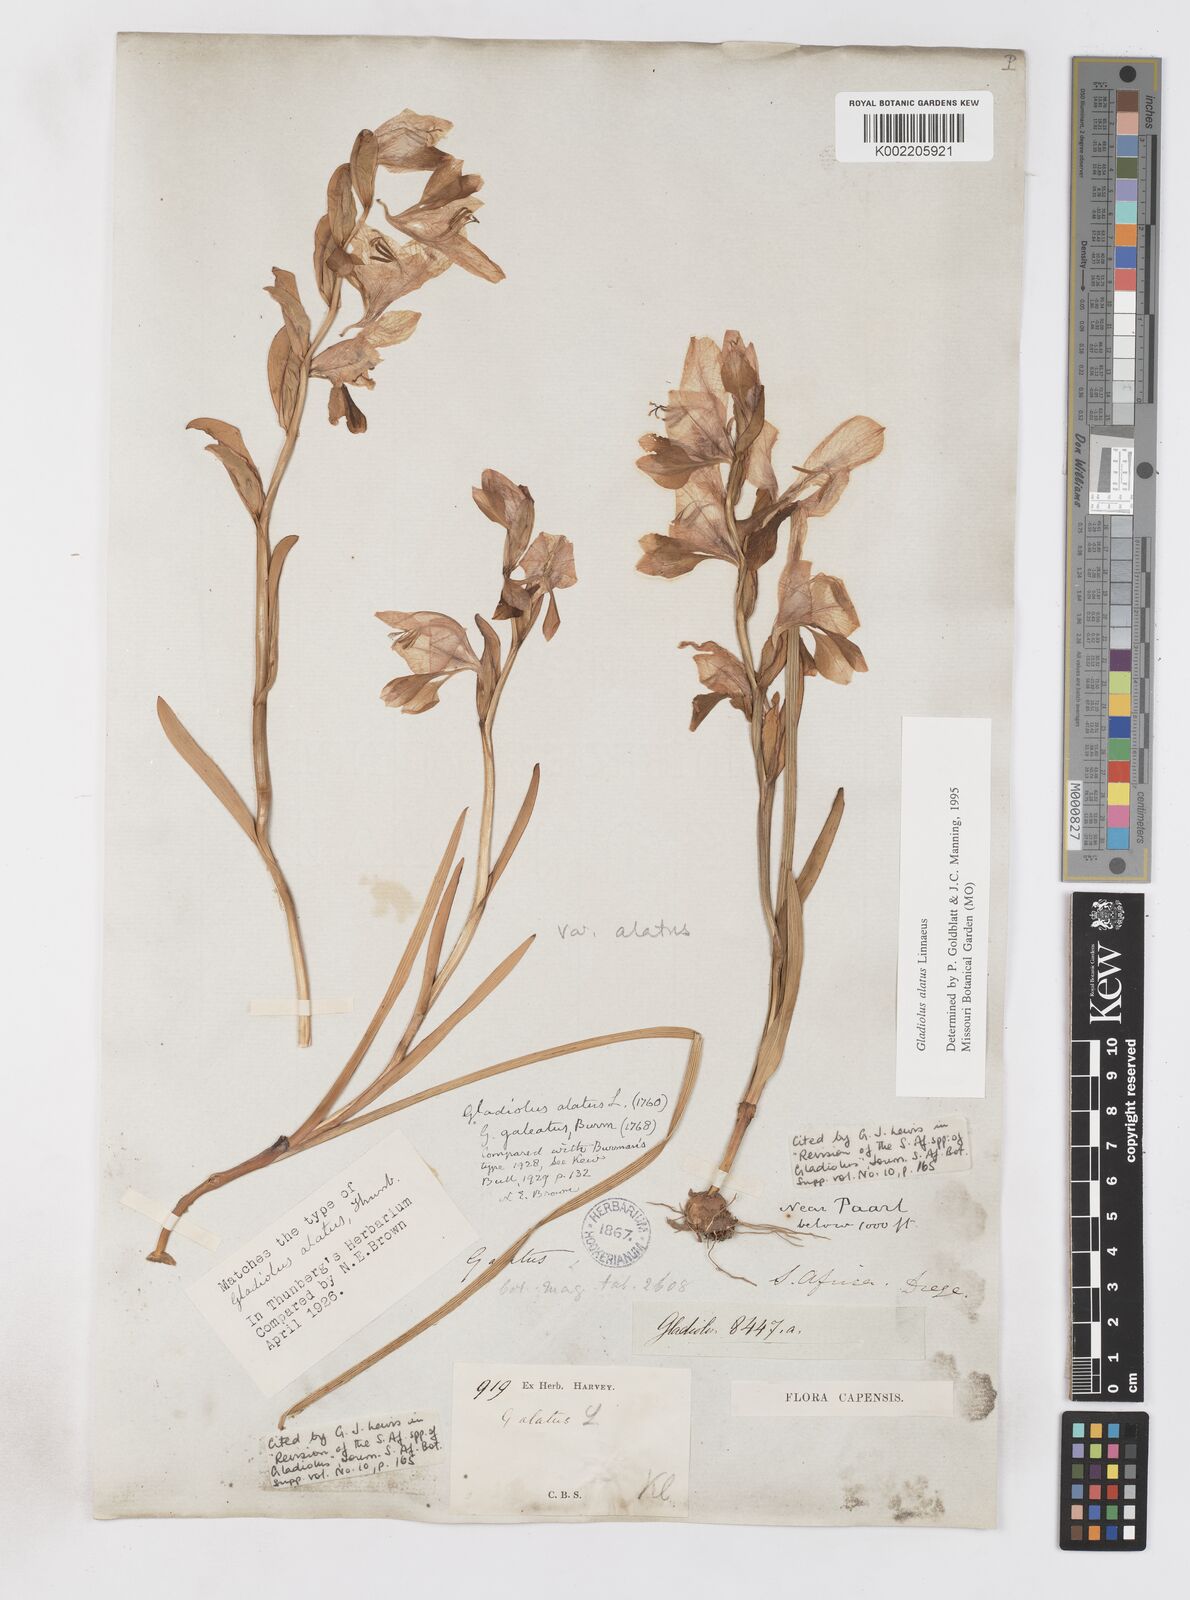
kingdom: Plantae
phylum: Tracheophyta
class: Liliopsida
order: Asparagales
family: Iridaceae
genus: Gladiolus
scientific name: Gladiolus alatus
